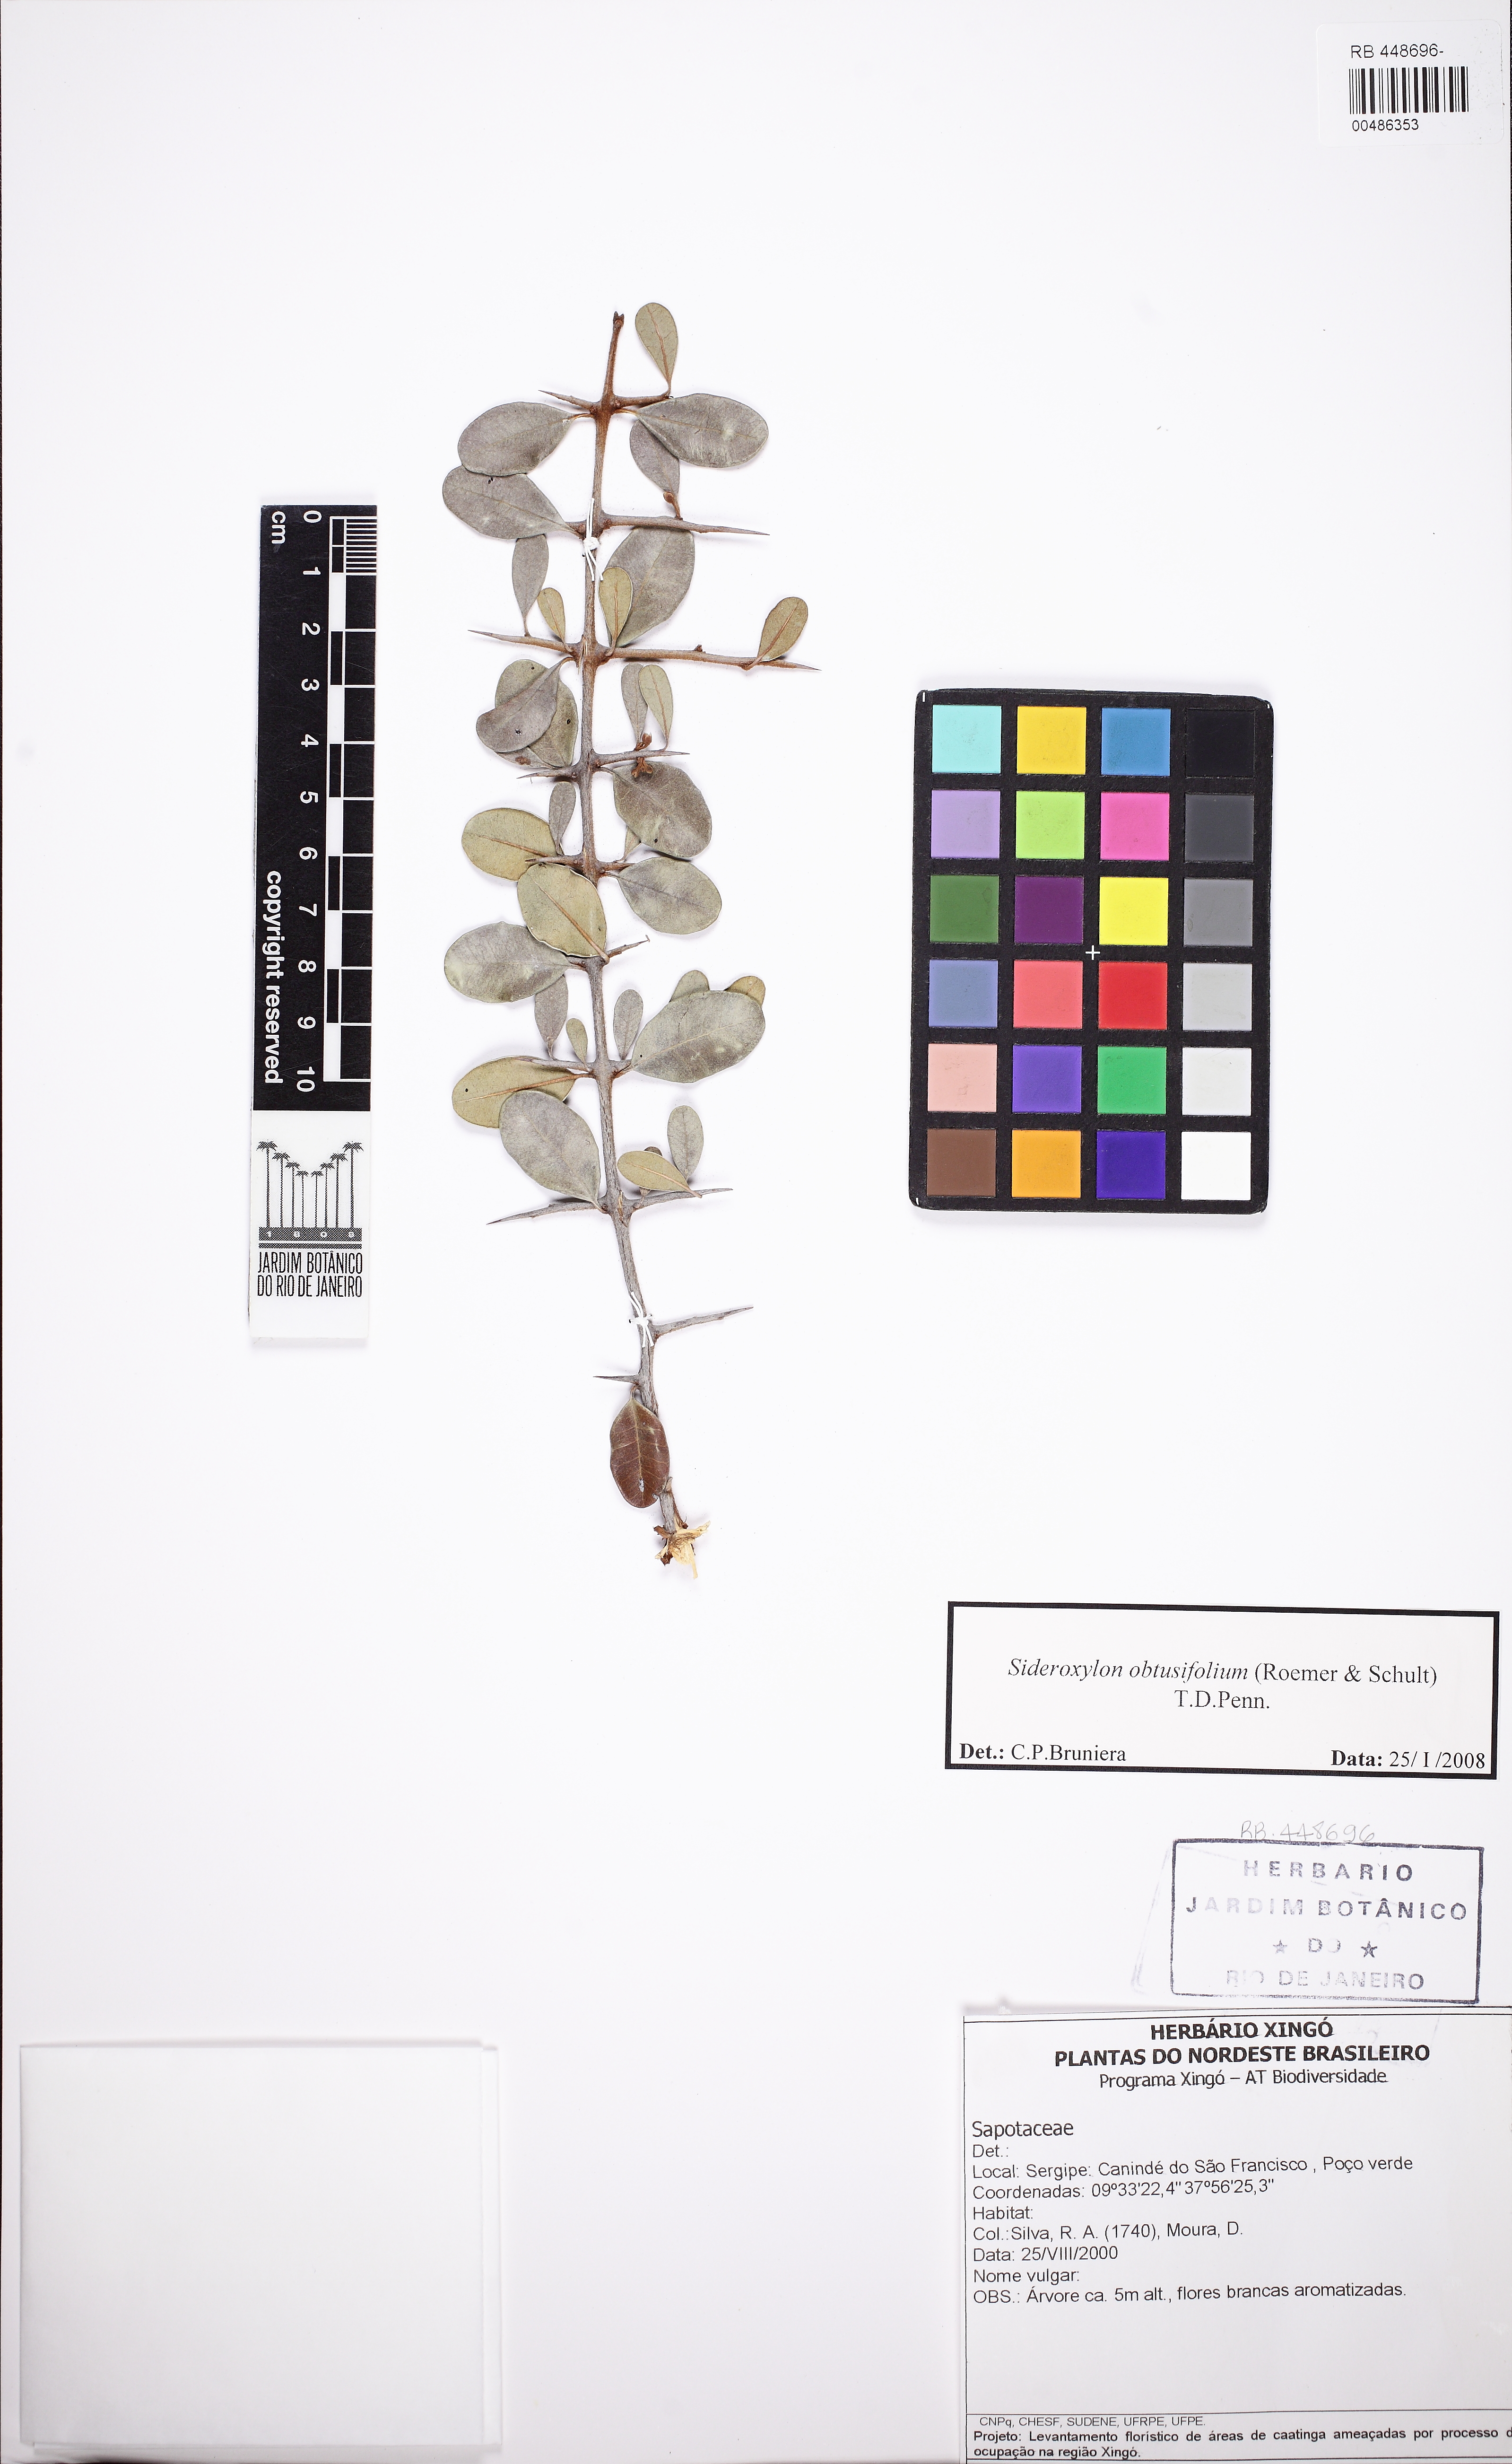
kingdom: Plantae
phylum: Tracheophyta
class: Magnoliopsida
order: Ericales
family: Sapotaceae
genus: Sideroxylon
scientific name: Sideroxylon obtusifolium
